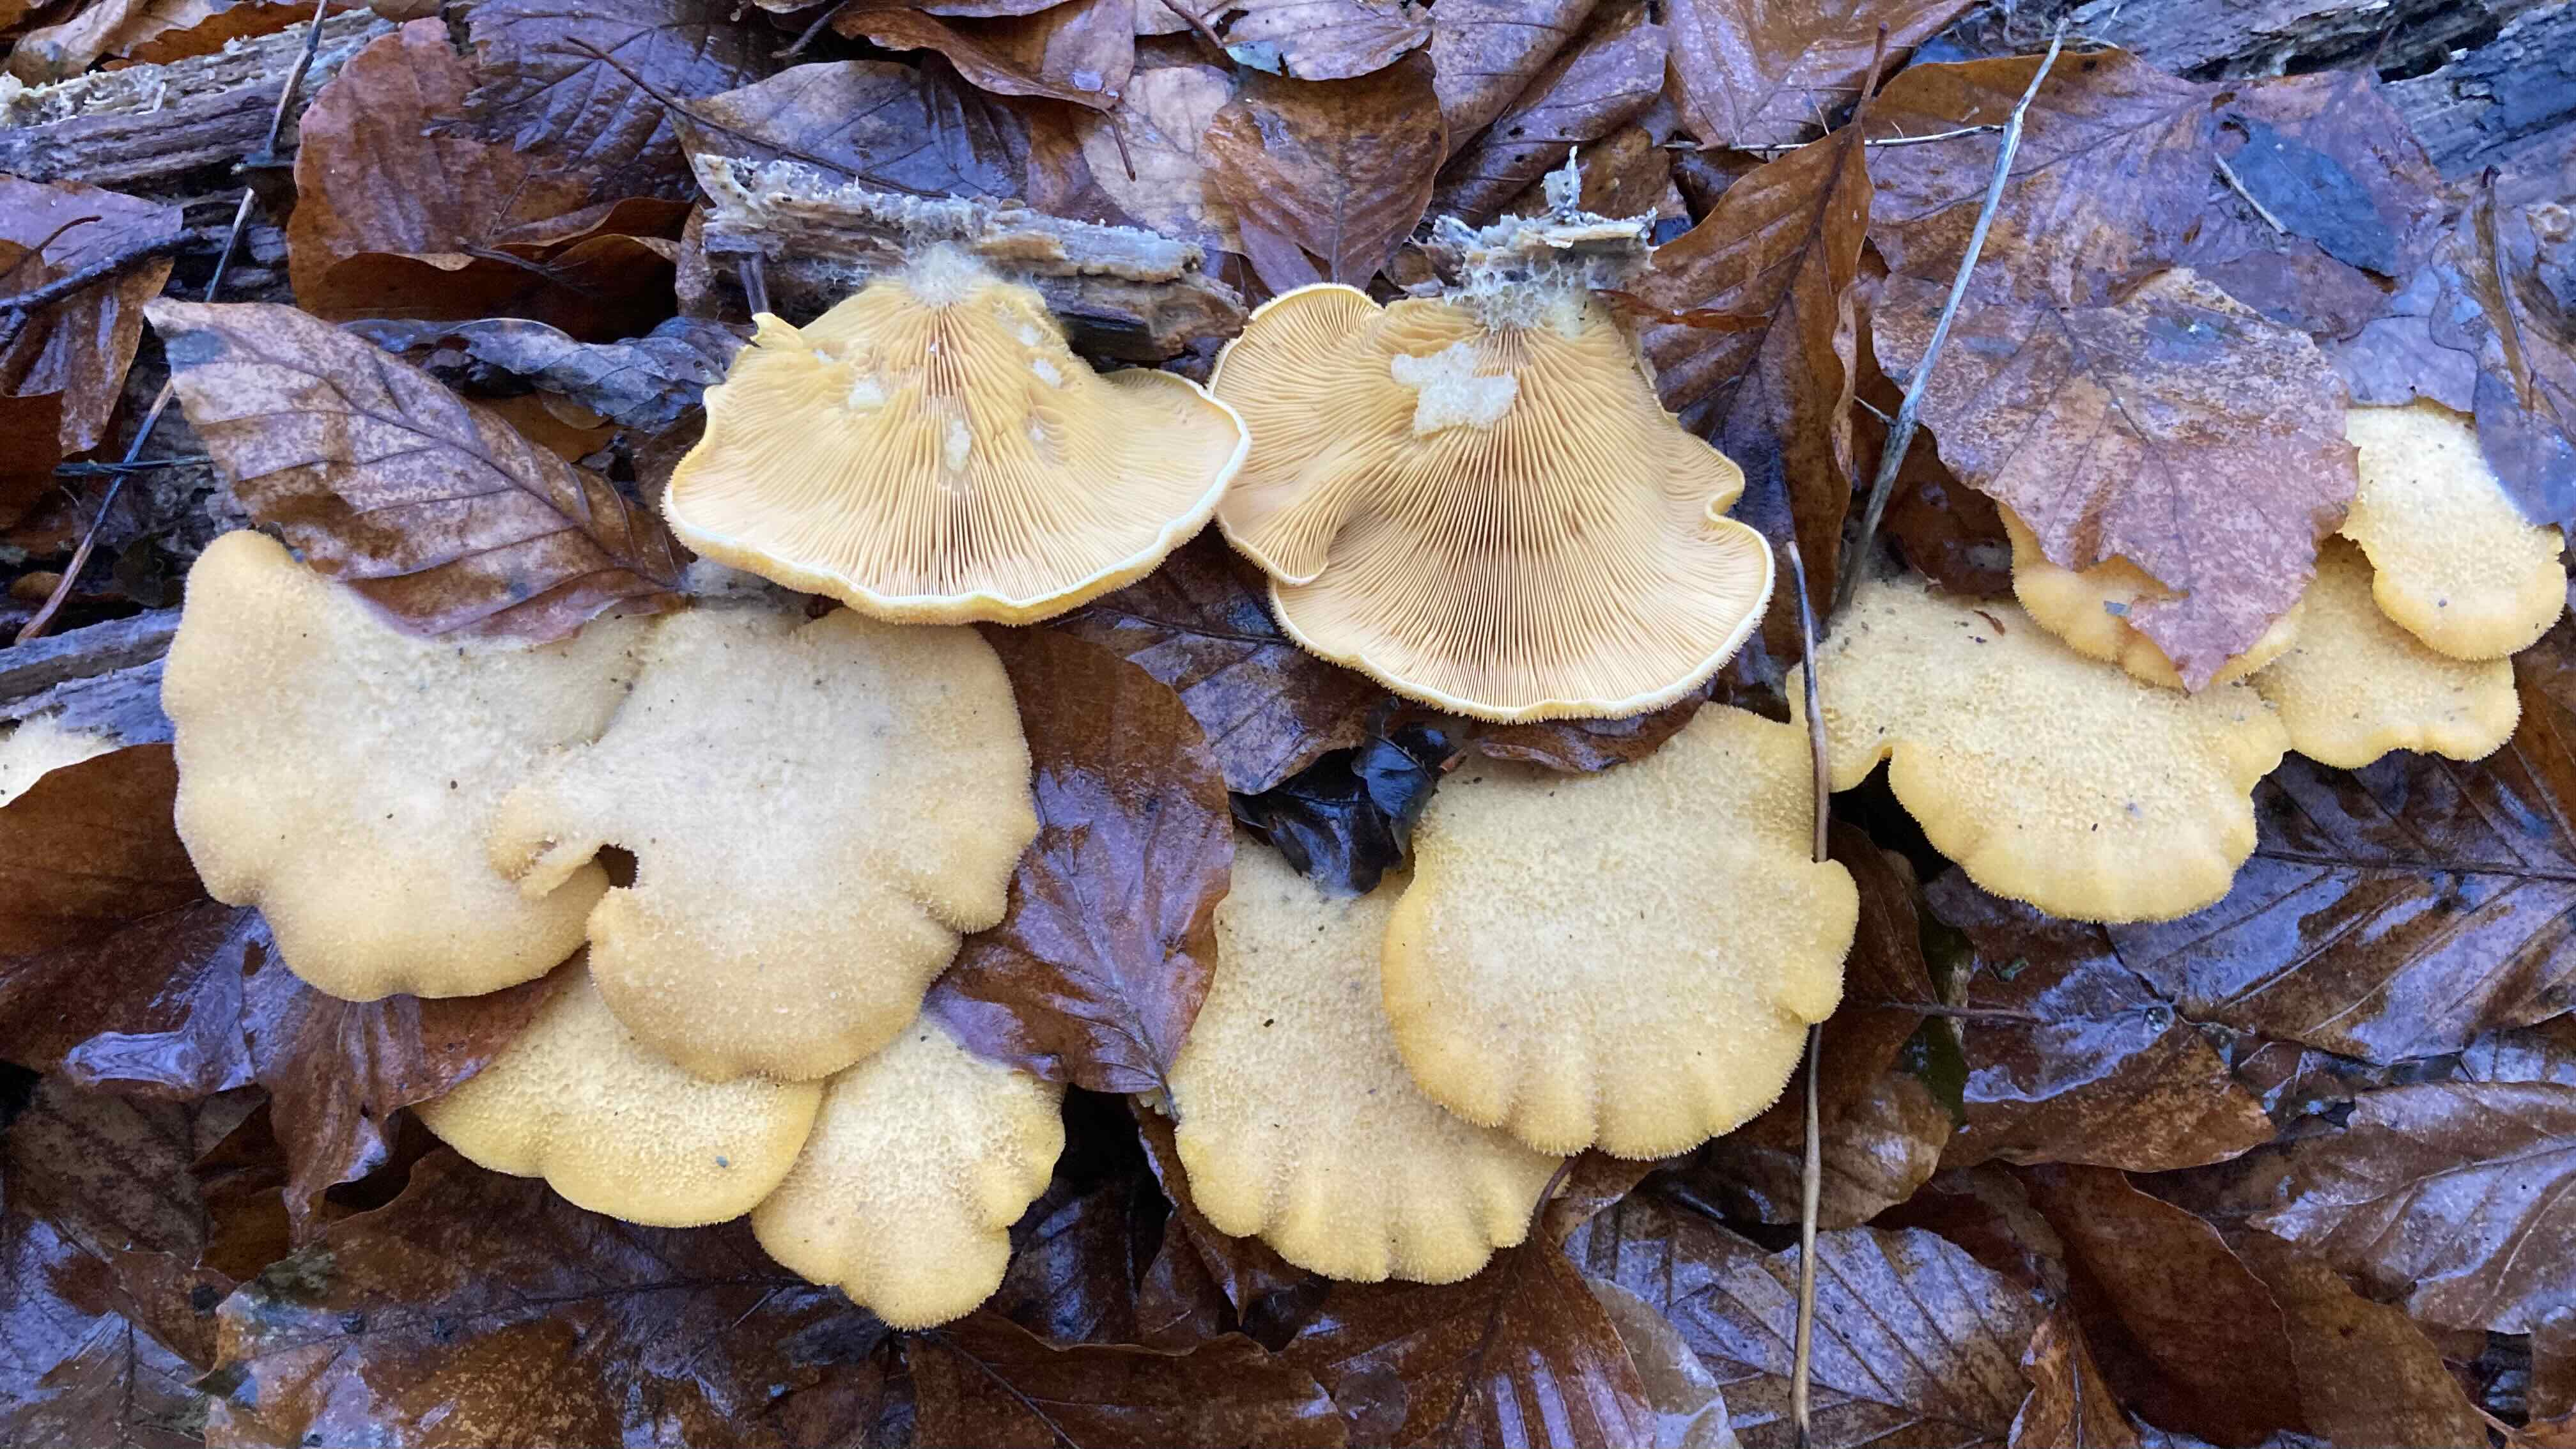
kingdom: Fungi
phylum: Basidiomycota
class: Agaricomycetes
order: Agaricales
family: Phyllotopsidaceae
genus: Phyllotopsis
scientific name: Phyllotopsis nidulans
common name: okkerblad
